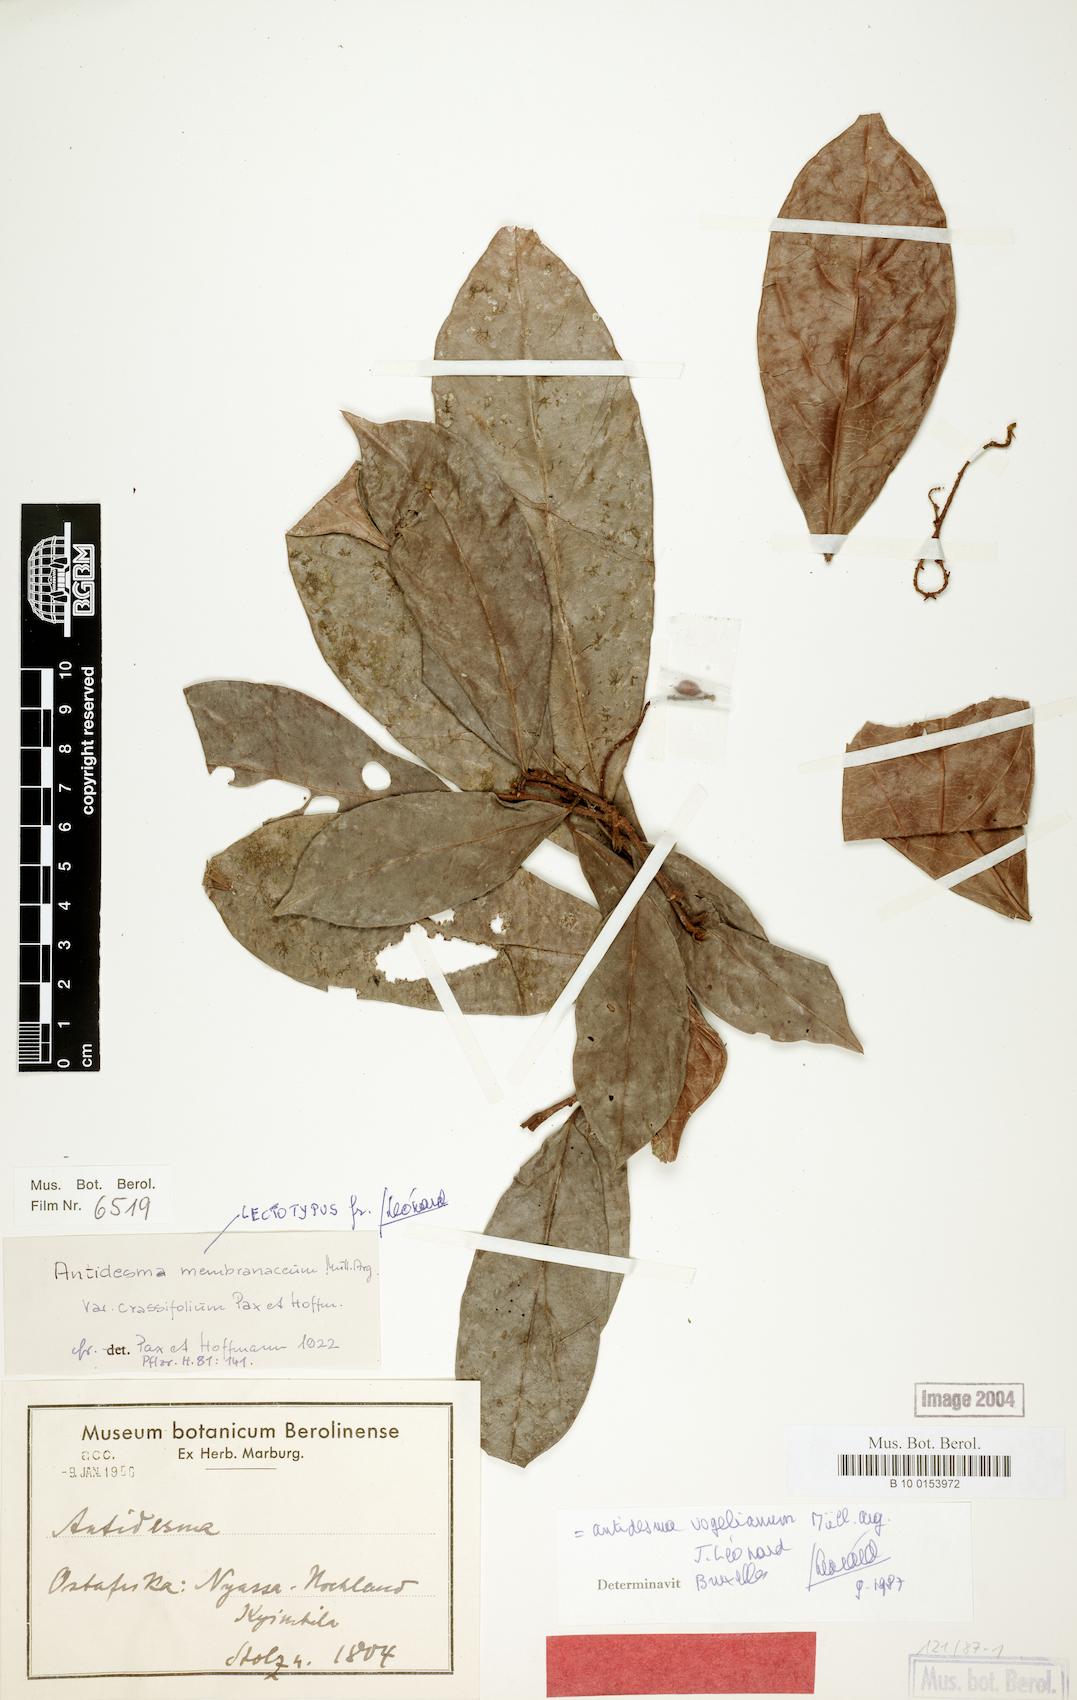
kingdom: Plantae
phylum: Tracheophyta
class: Magnoliopsida
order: Malpighiales
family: Phyllanthaceae
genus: Antidesma
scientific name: Antidesma vogelianum
